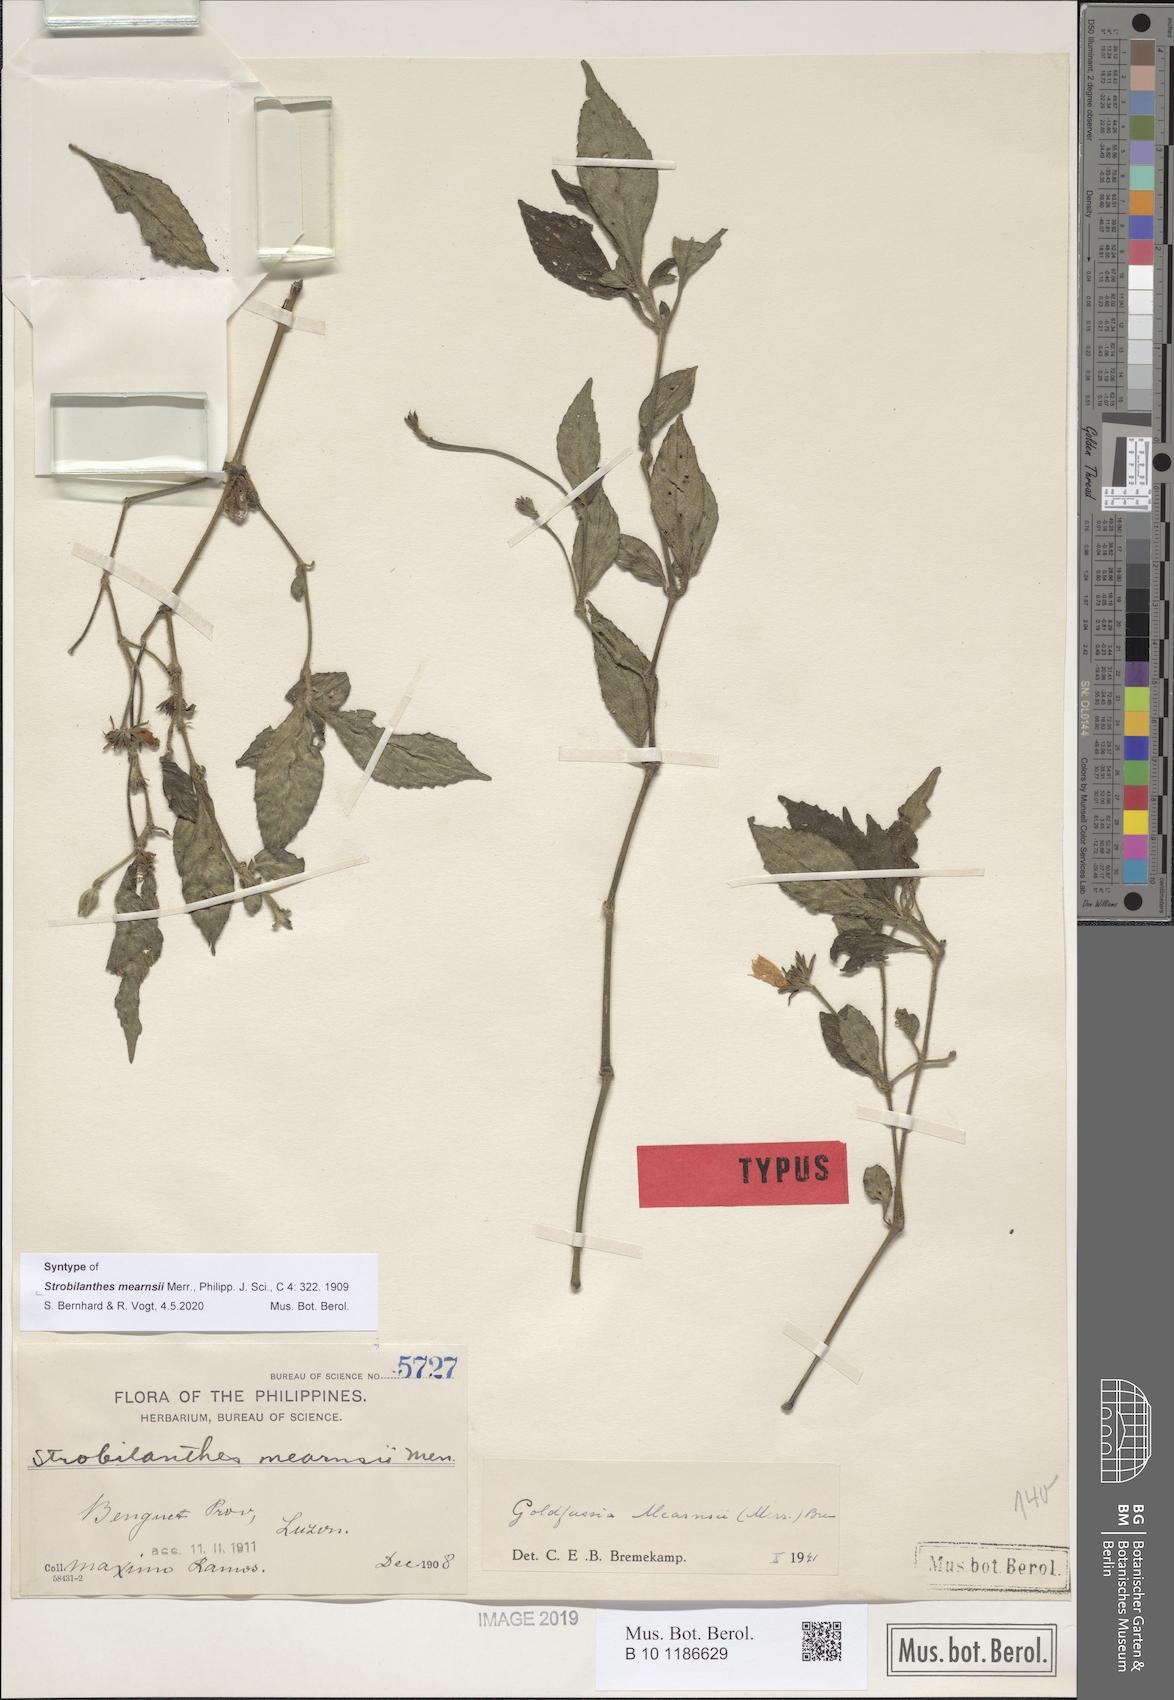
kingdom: Plantae
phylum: Tracheophyta
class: Magnoliopsida
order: Lamiales
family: Acanthaceae
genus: Strobilanthes
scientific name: Strobilanthes mearnsii
